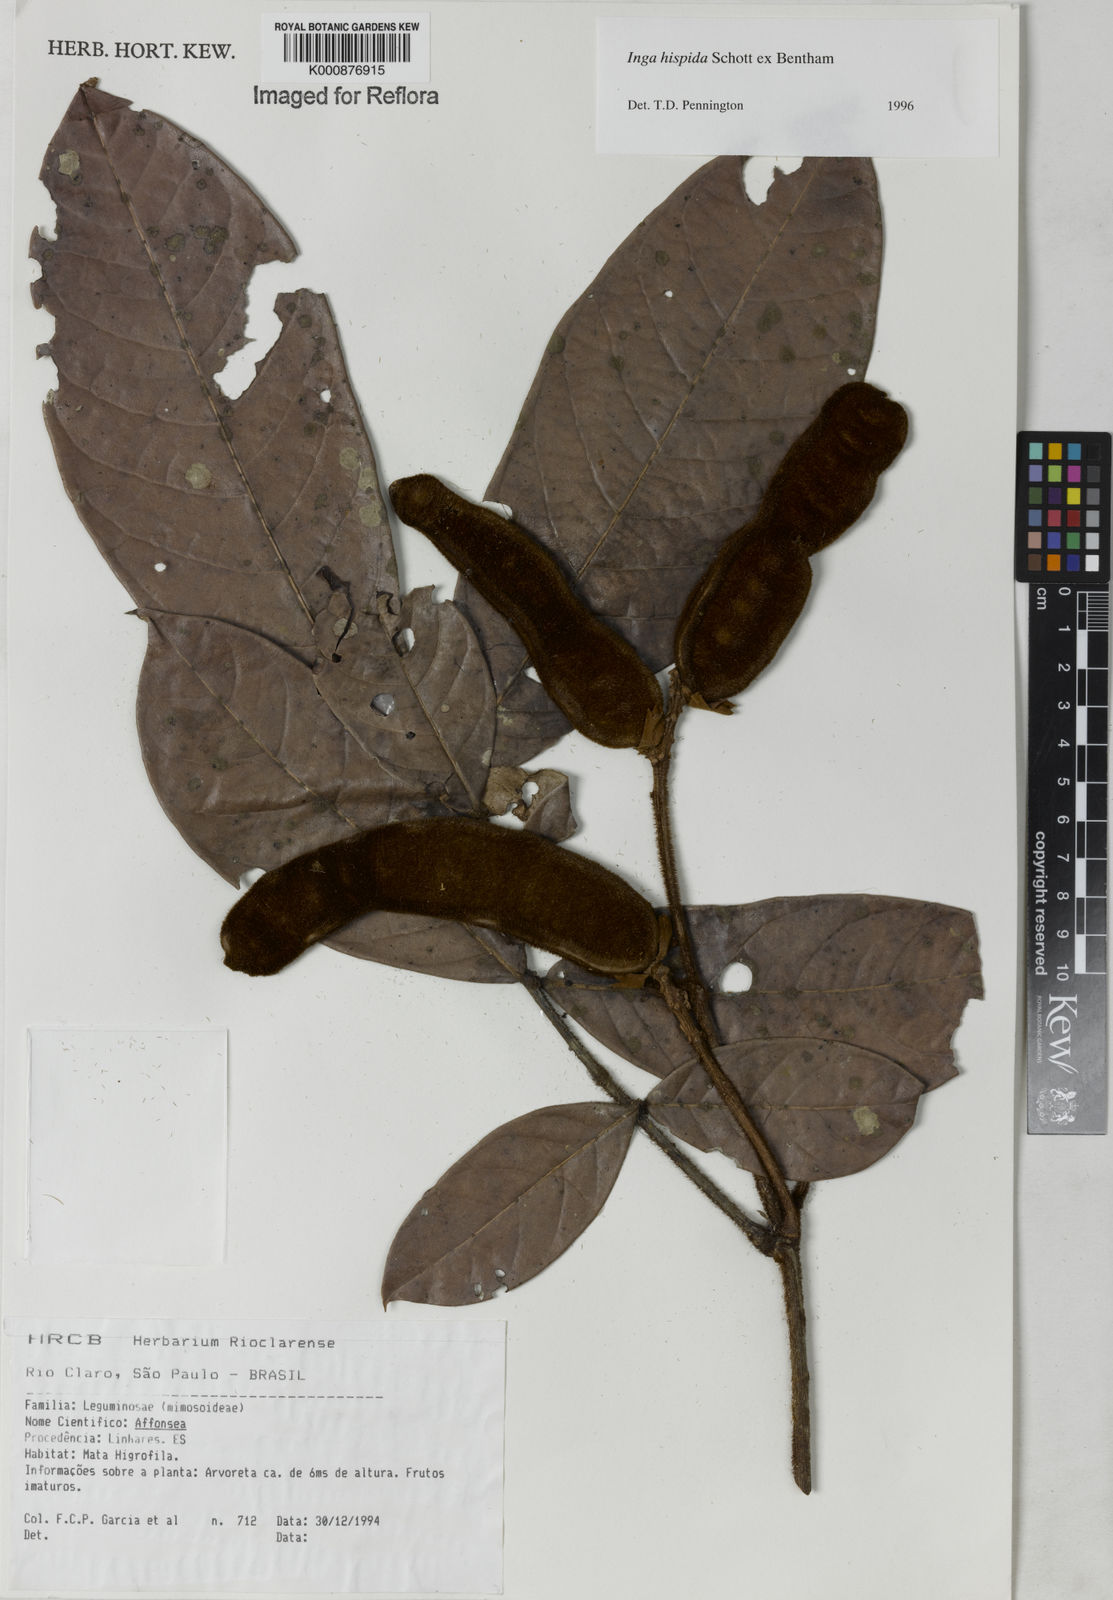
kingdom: Plantae
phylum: Tracheophyta
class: Magnoliopsida
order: Fabales
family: Fabaceae
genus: Inga
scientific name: Inga hispida
